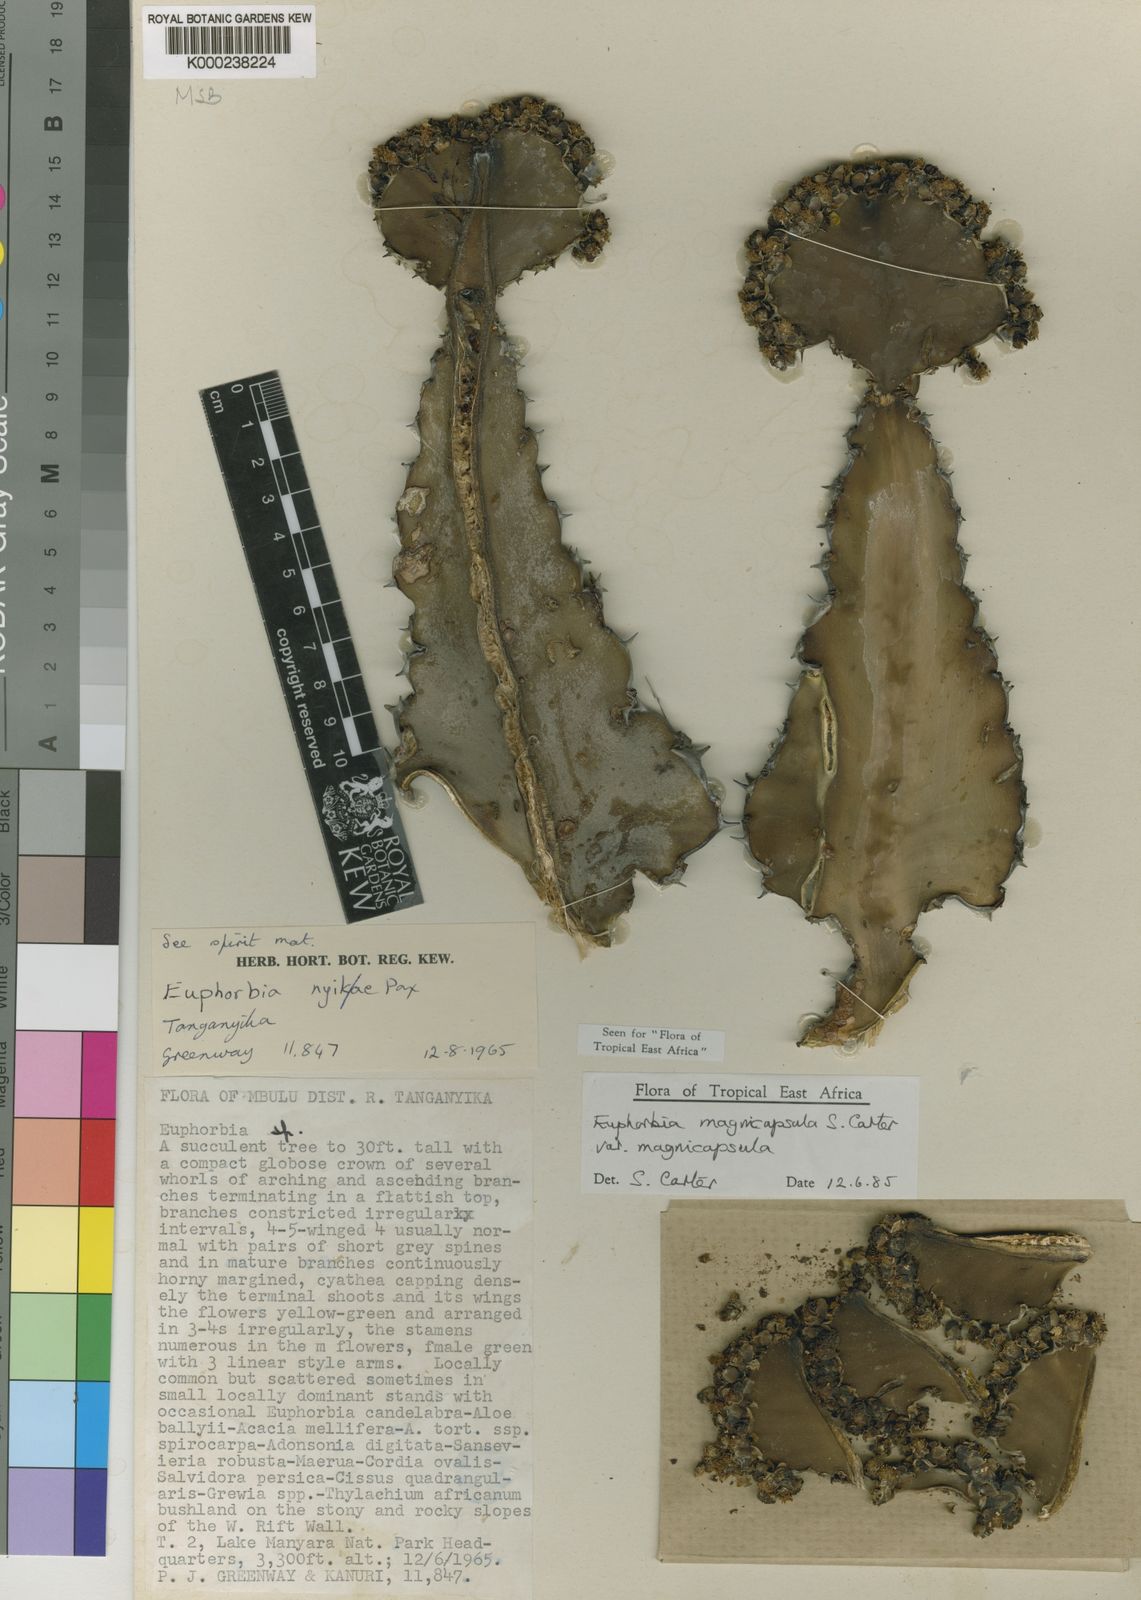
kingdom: Plantae
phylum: Tracheophyta
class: Magnoliopsida
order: Malpighiales
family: Euphorbiaceae
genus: Euphorbia
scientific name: Euphorbia magnicapsula
